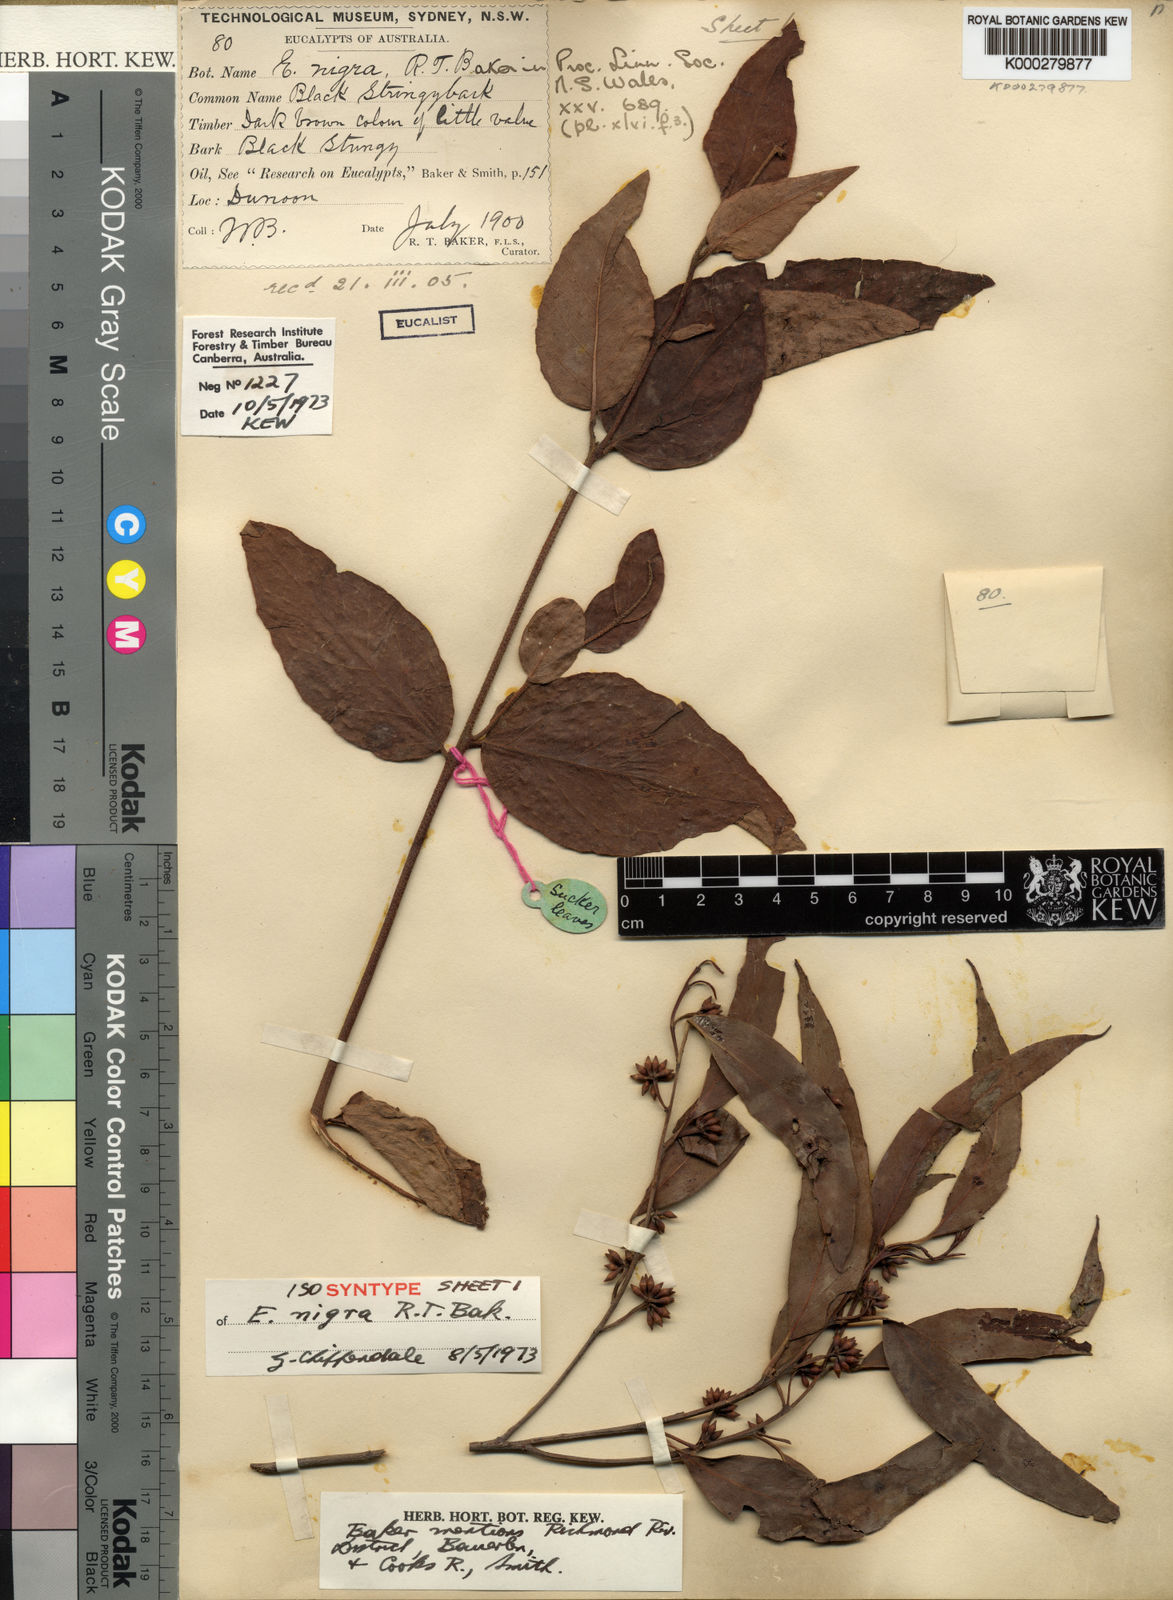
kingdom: Plantae
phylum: Tracheophyta
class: Magnoliopsida
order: Myrtales
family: Myrtaceae
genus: Eucalyptus
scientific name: Eucalyptus nigra
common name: White-stringybark
